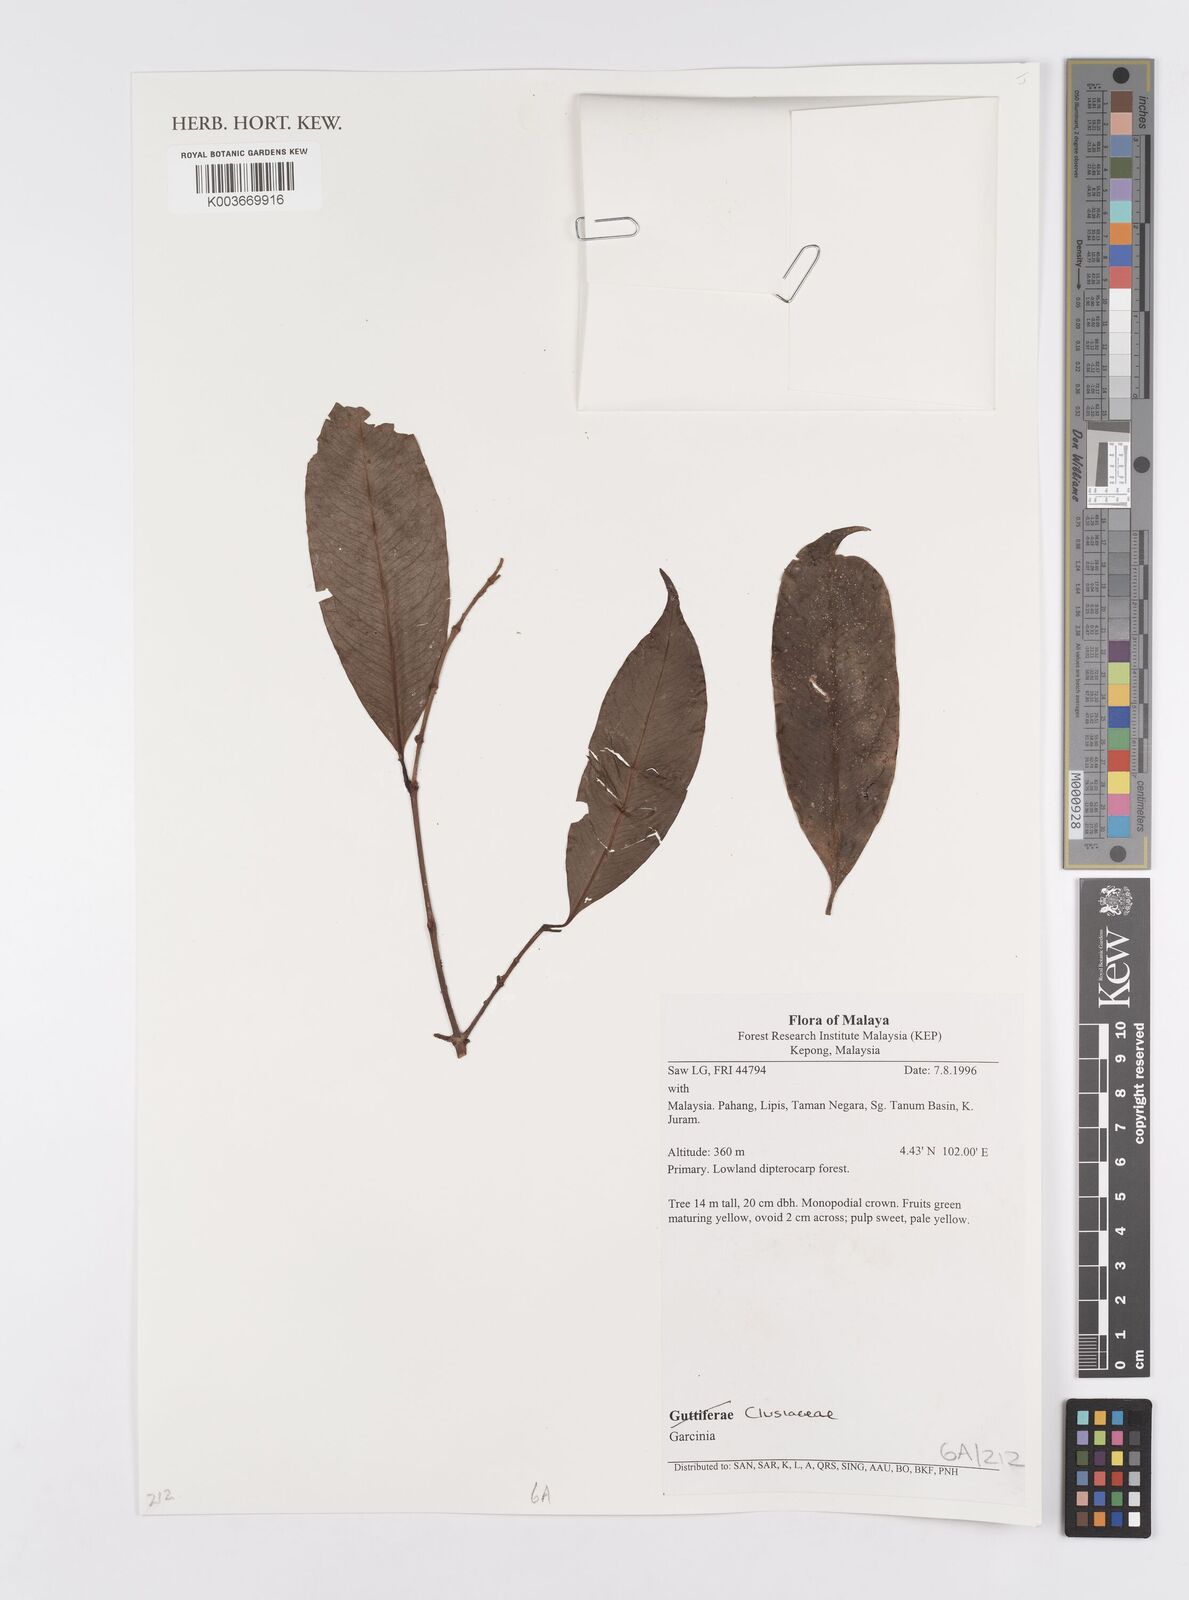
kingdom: Plantae
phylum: Tracheophyta
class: Magnoliopsida
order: Malpighiales
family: Clusiaceae
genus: Garcinia
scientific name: Garcinia
